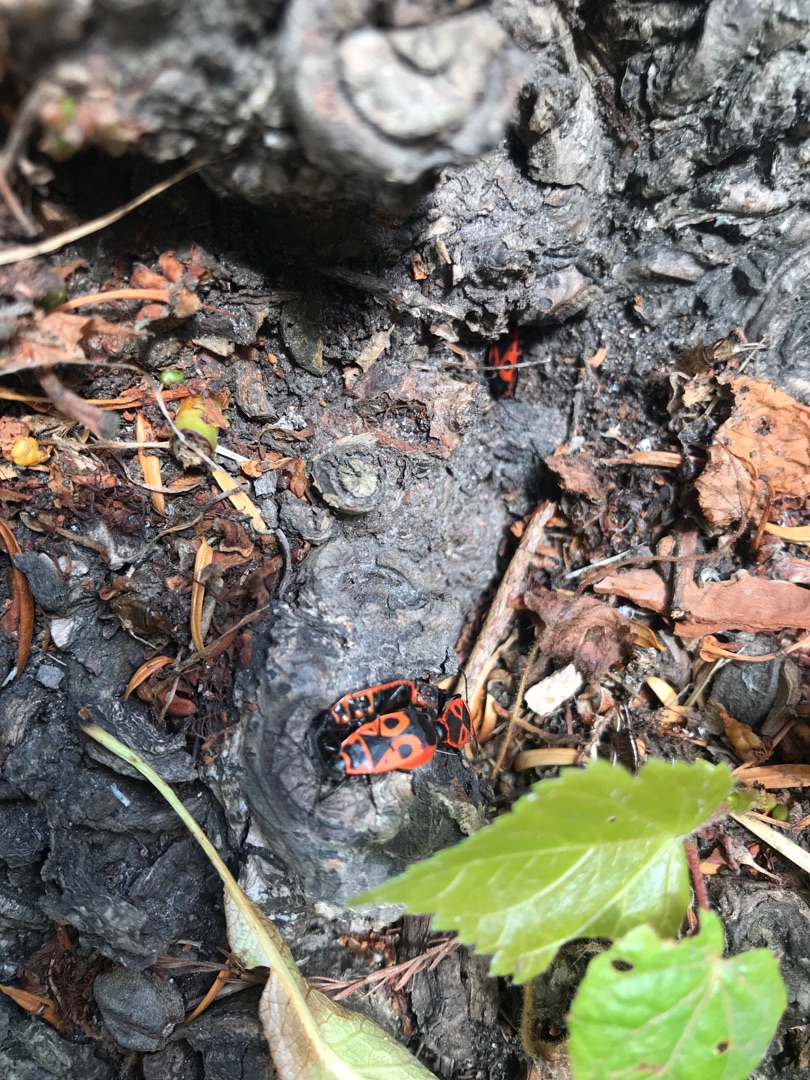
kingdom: Animalia
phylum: Arthropoda
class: Insecta
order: Hemiptera
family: Pyrrhocoridae
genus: Pyrrhocoris
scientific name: Pyrrhocoris apterus
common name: Ildtæge
